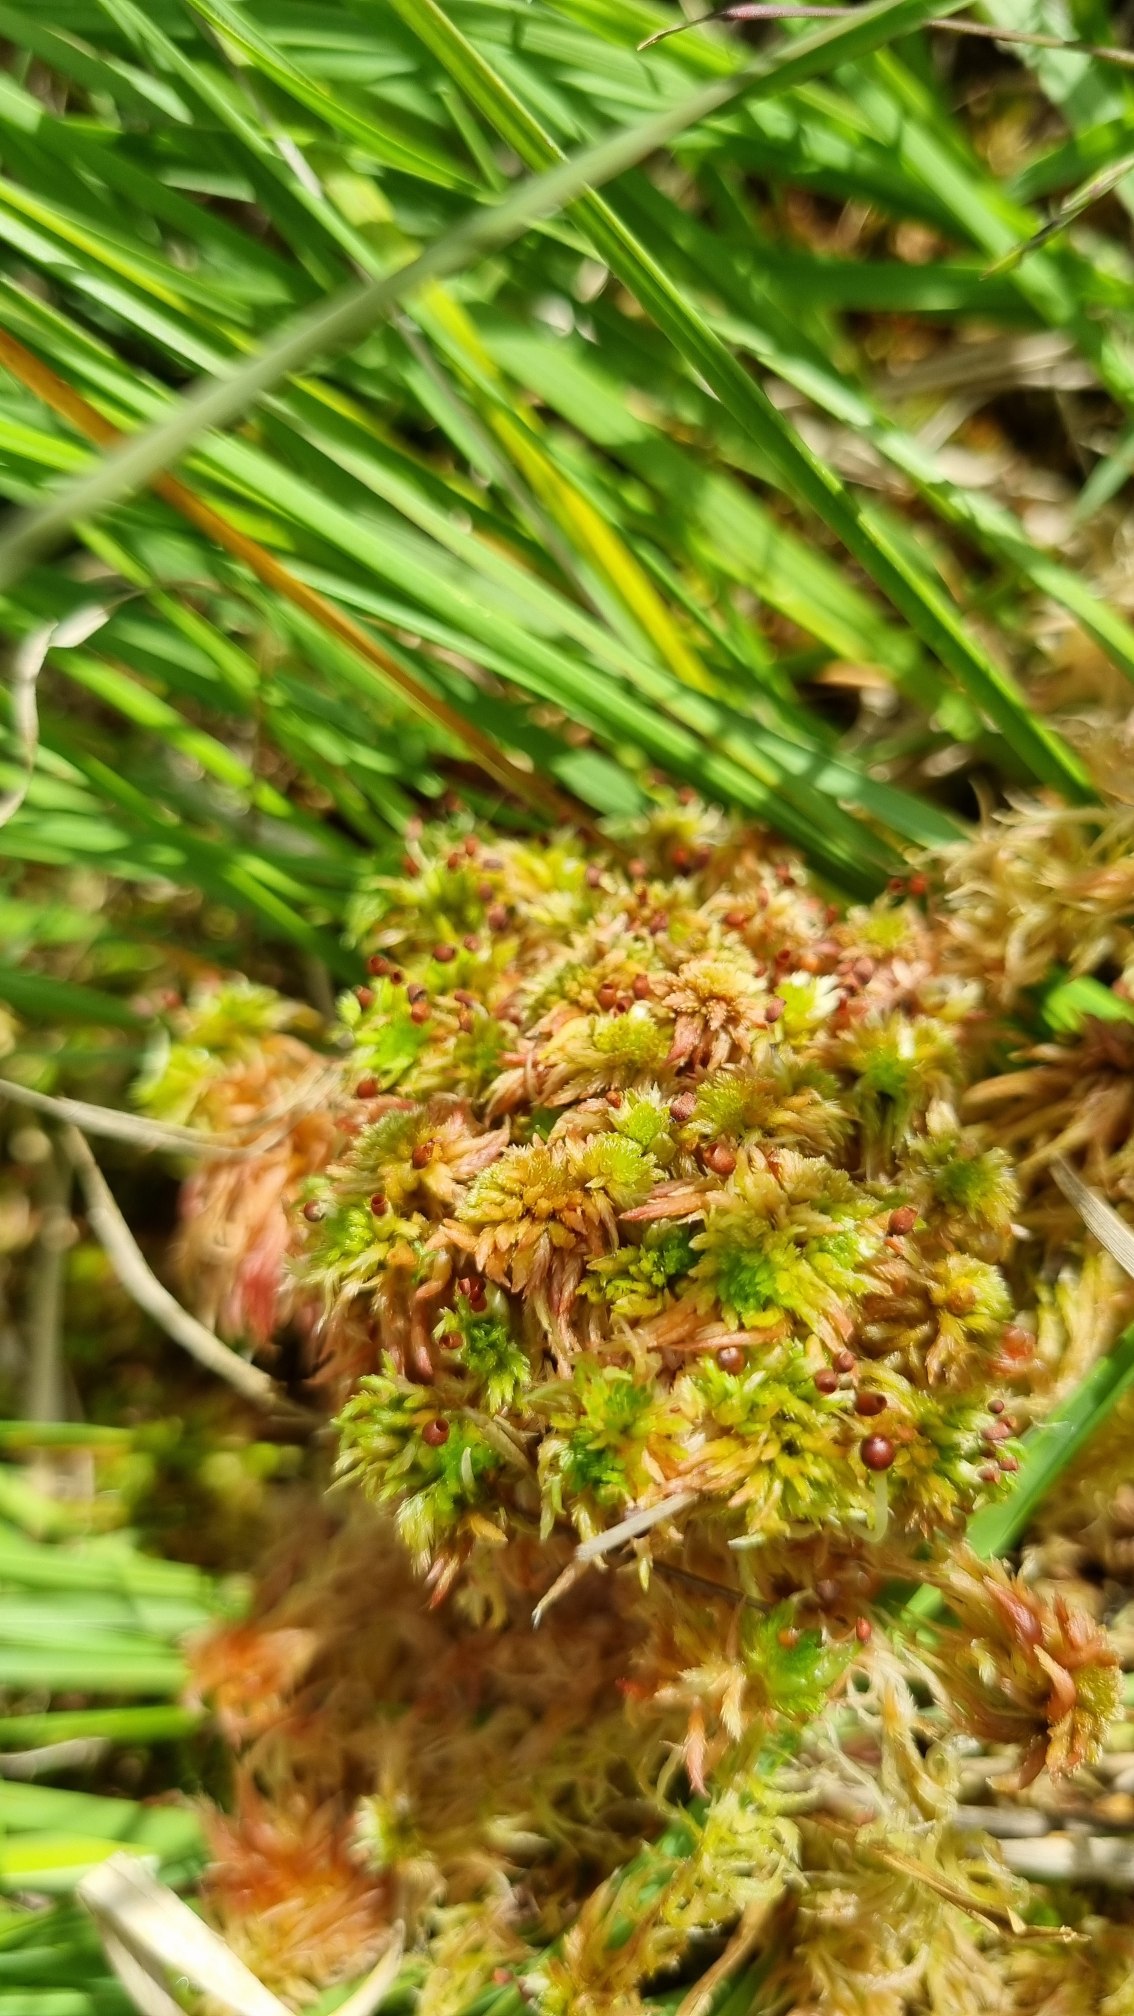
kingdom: Plantae
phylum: Bryophyta
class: Sphagnopsida
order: Sphagnales
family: Sphagnaceae
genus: Sphagnum
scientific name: Sphagnum subnitens
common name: Fedtet tørvemos
